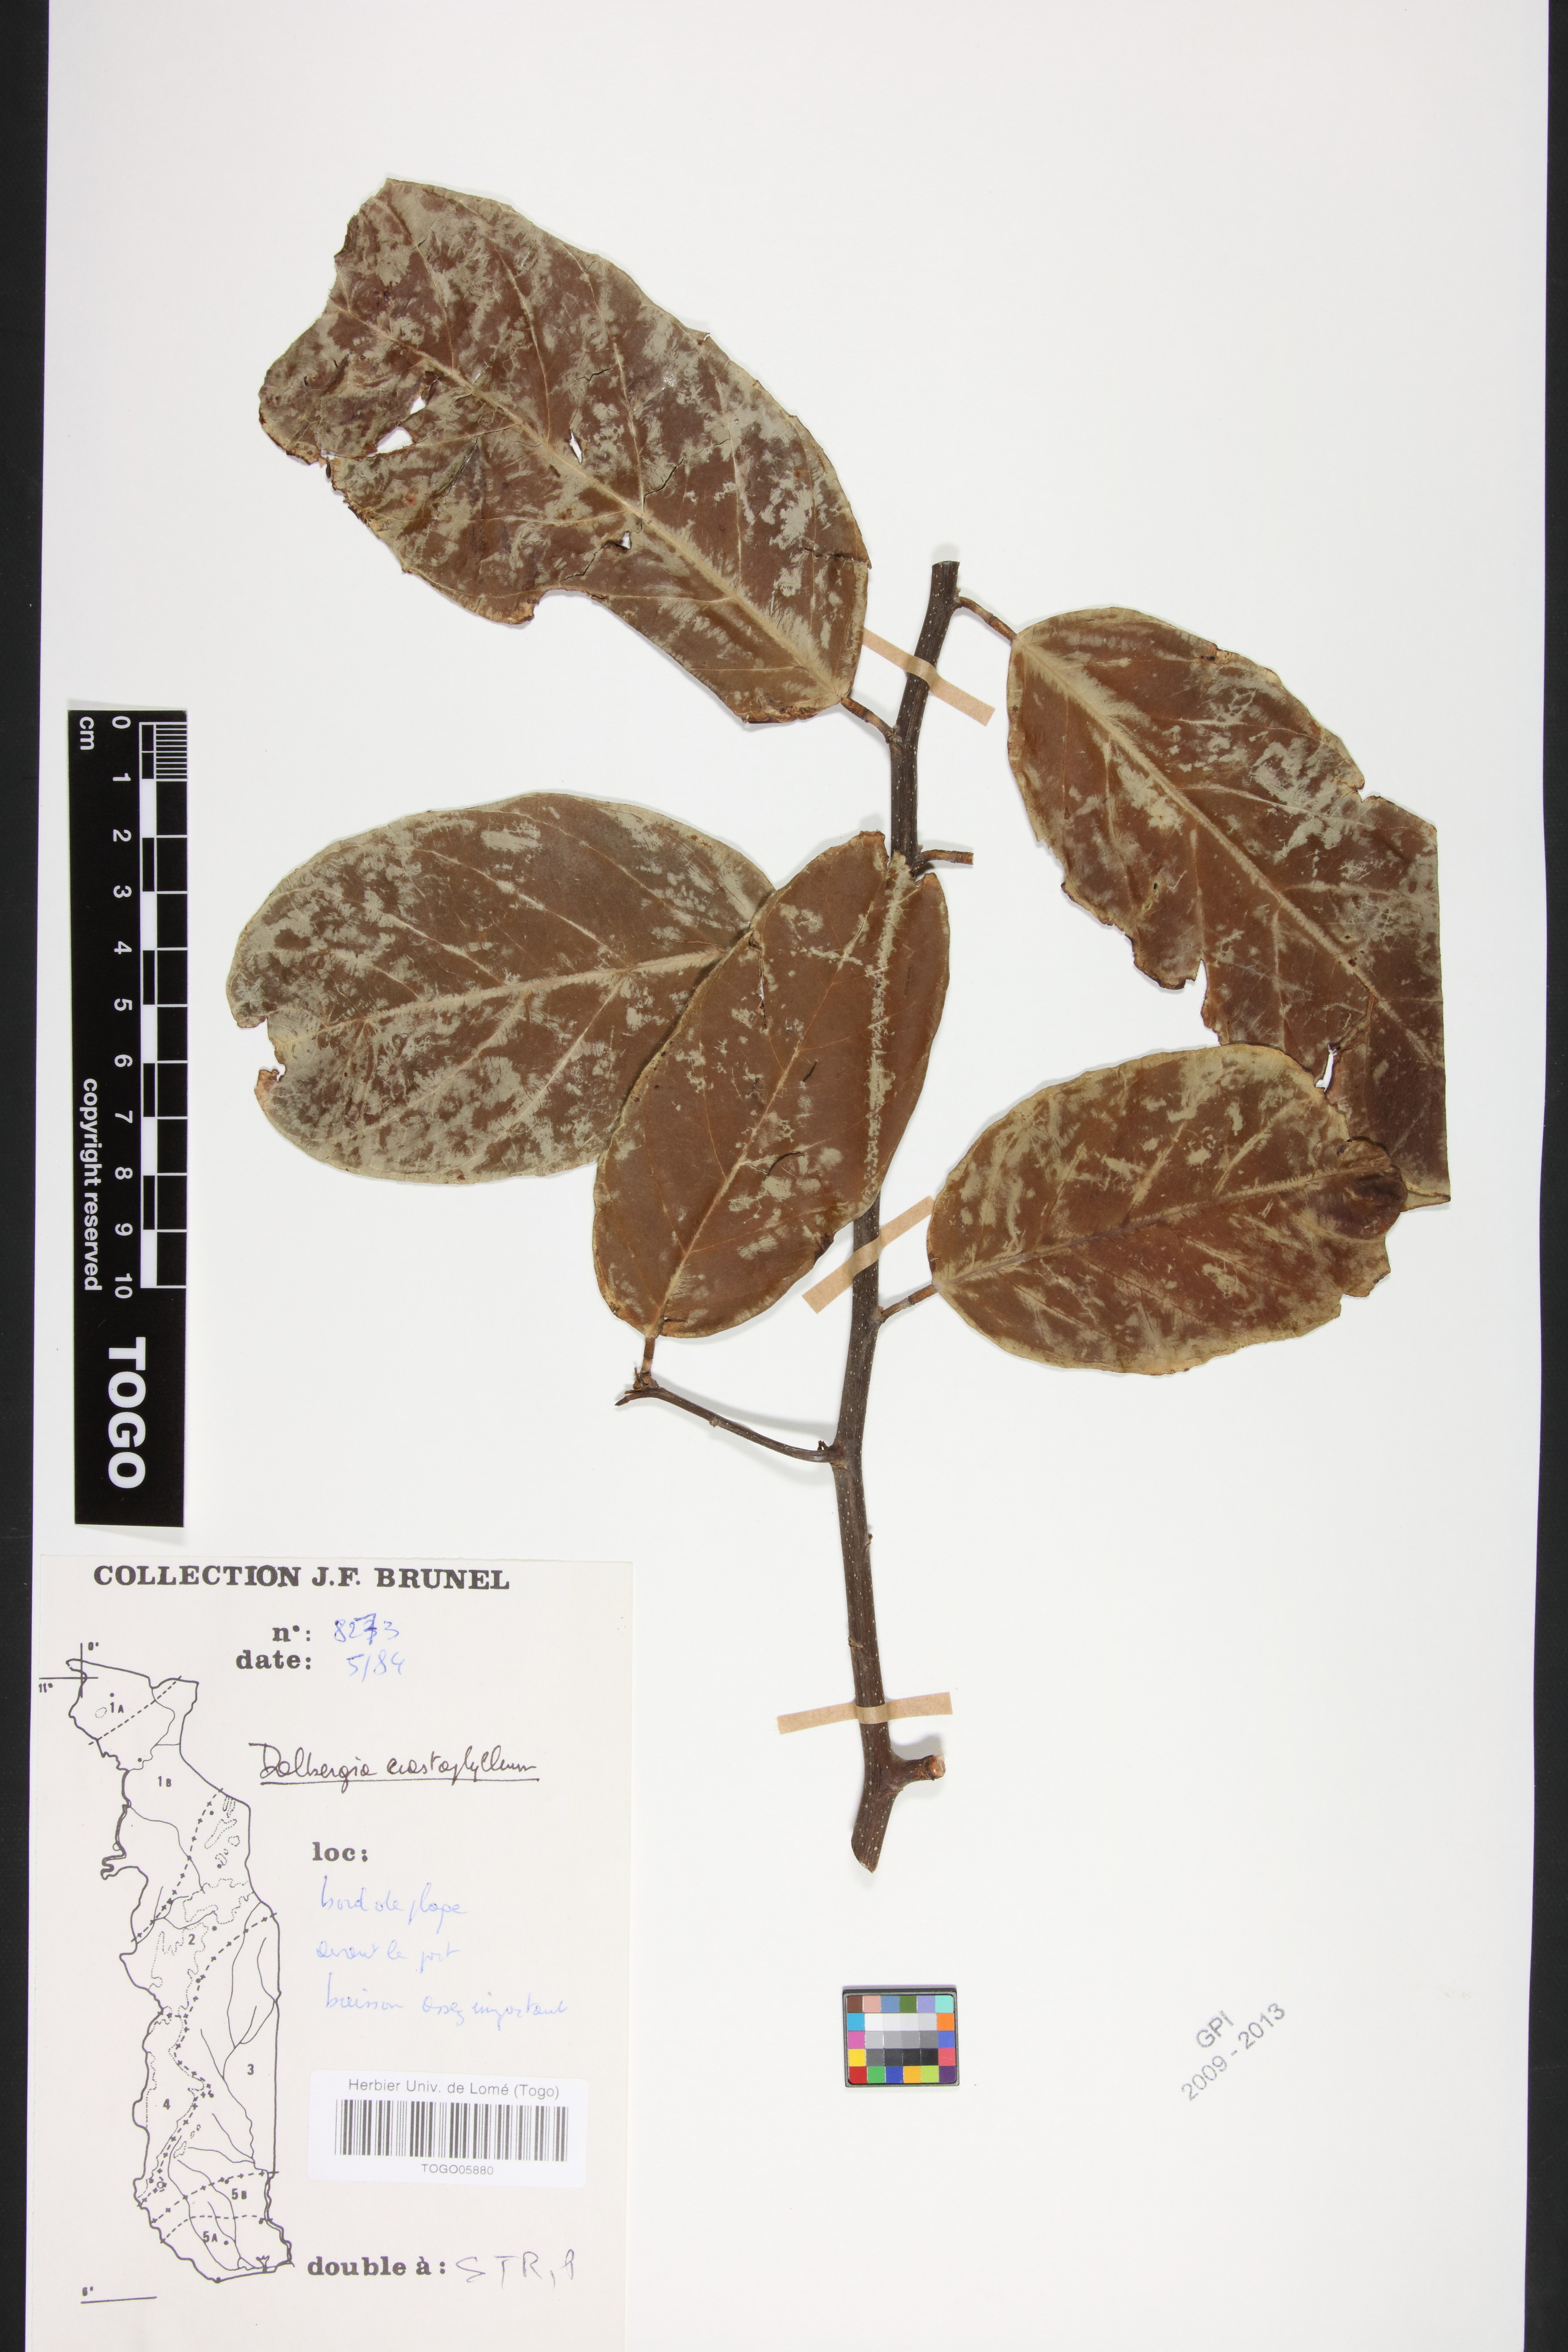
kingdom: Plantae
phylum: Tracheophyta
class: Magnoliopsida
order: Fabales
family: Fabaceae
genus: Dalbergia
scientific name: Dalbergia ecastaphyllum
